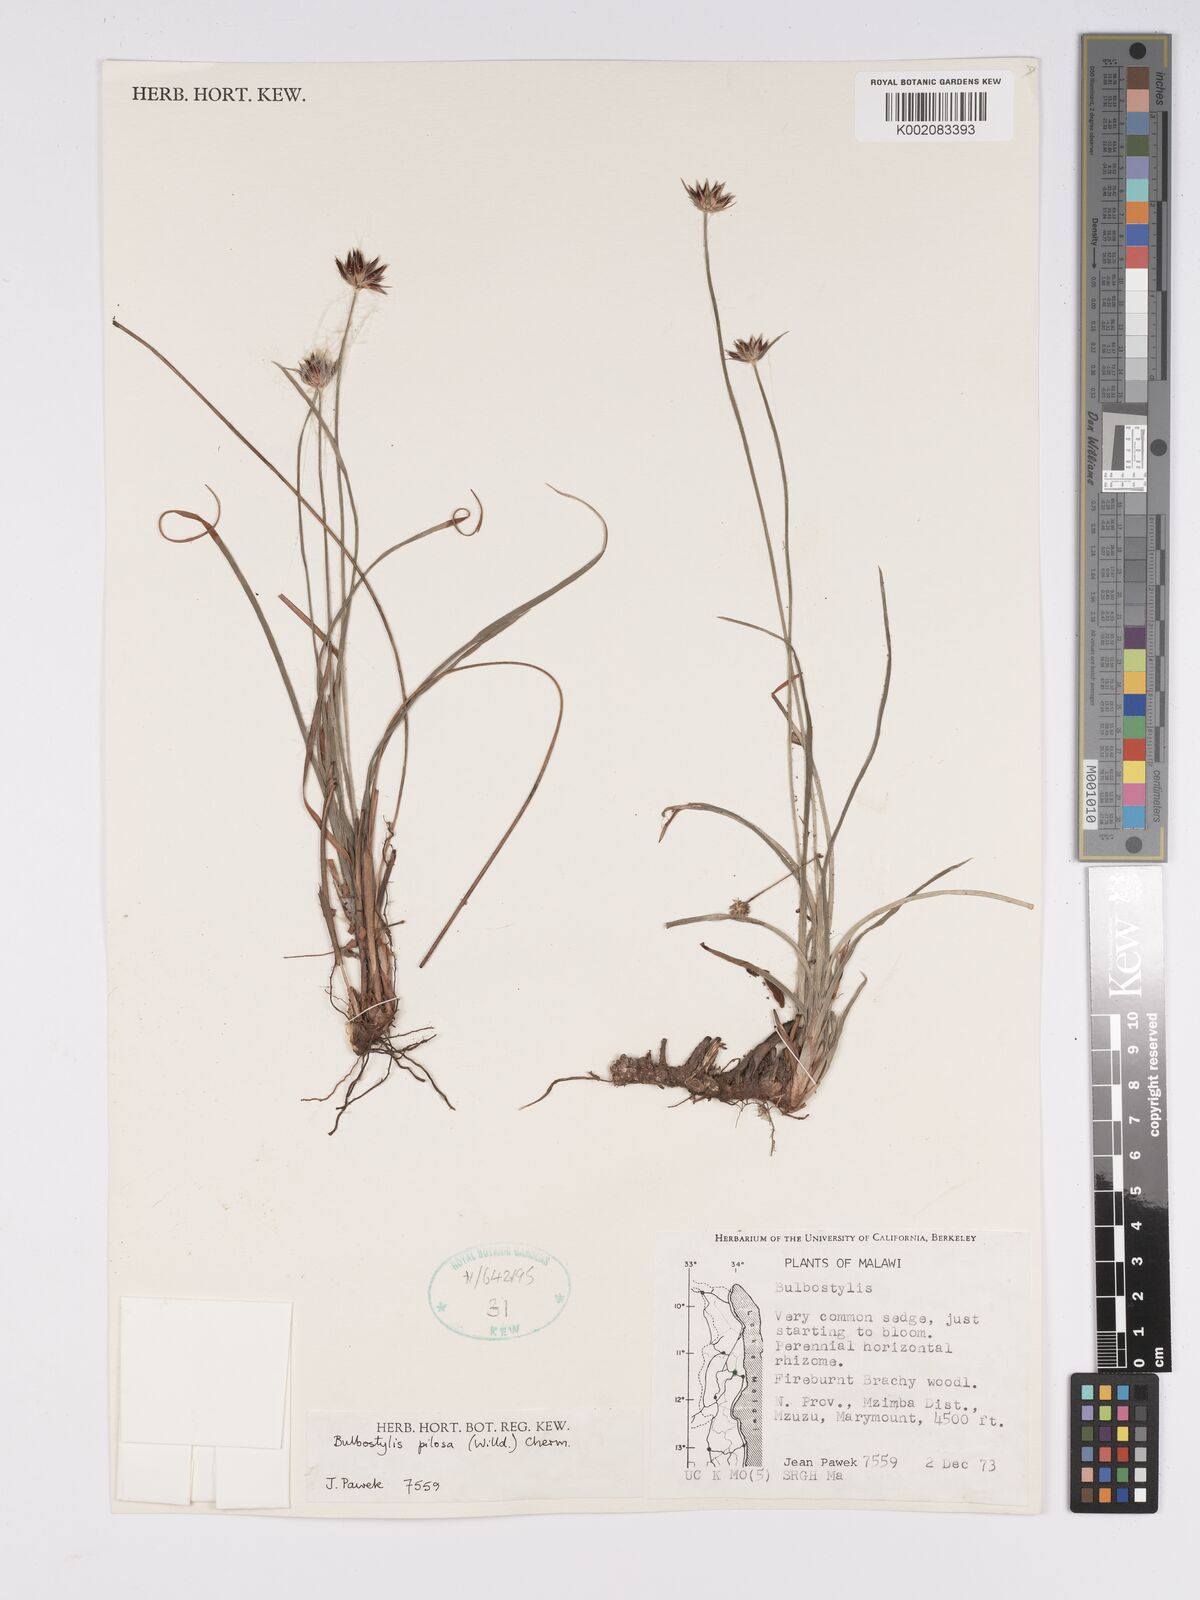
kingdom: Plantae
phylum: Tracheophyta
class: Liliopsida
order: Poales
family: Cyperaceae
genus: Bulbostylis
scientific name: Bulbostylis pilosa
